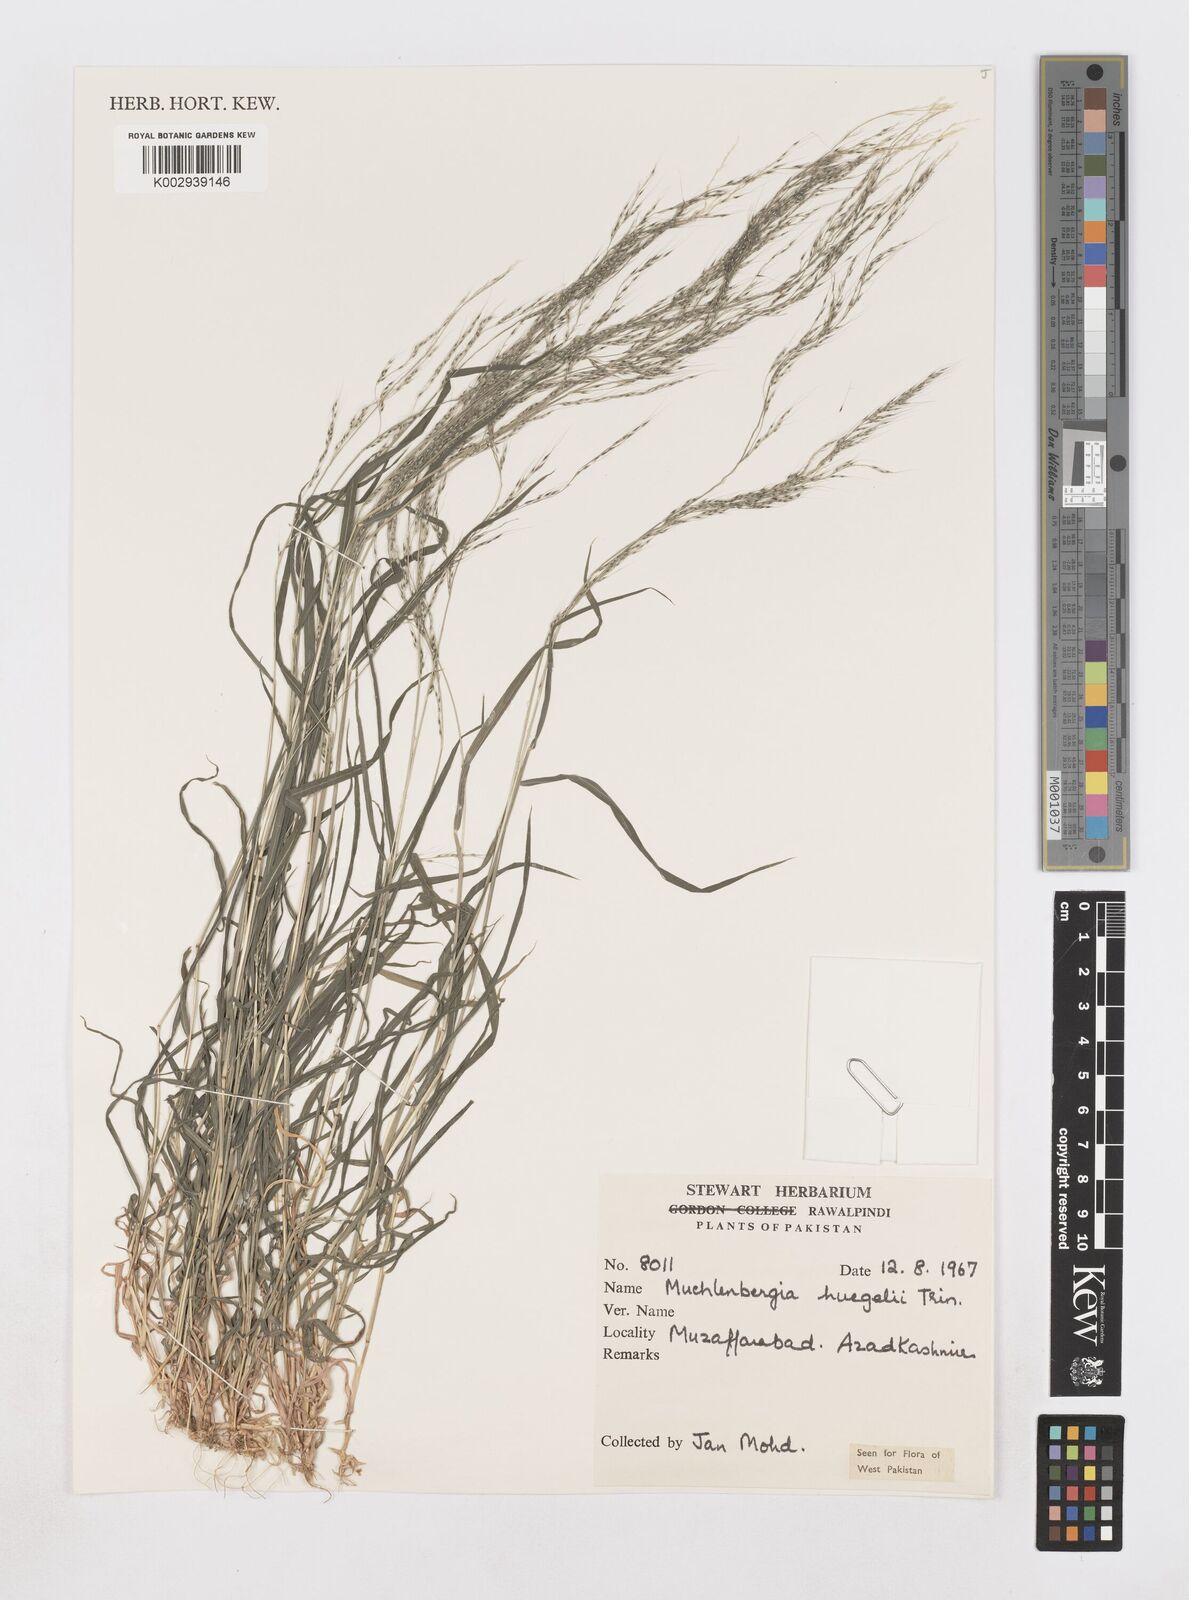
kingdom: Plantae
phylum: Tracheophyta
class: Liliopsida
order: Poales
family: Poaceae
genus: Muhlenbergia
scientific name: Muhlenbergia huegelii
